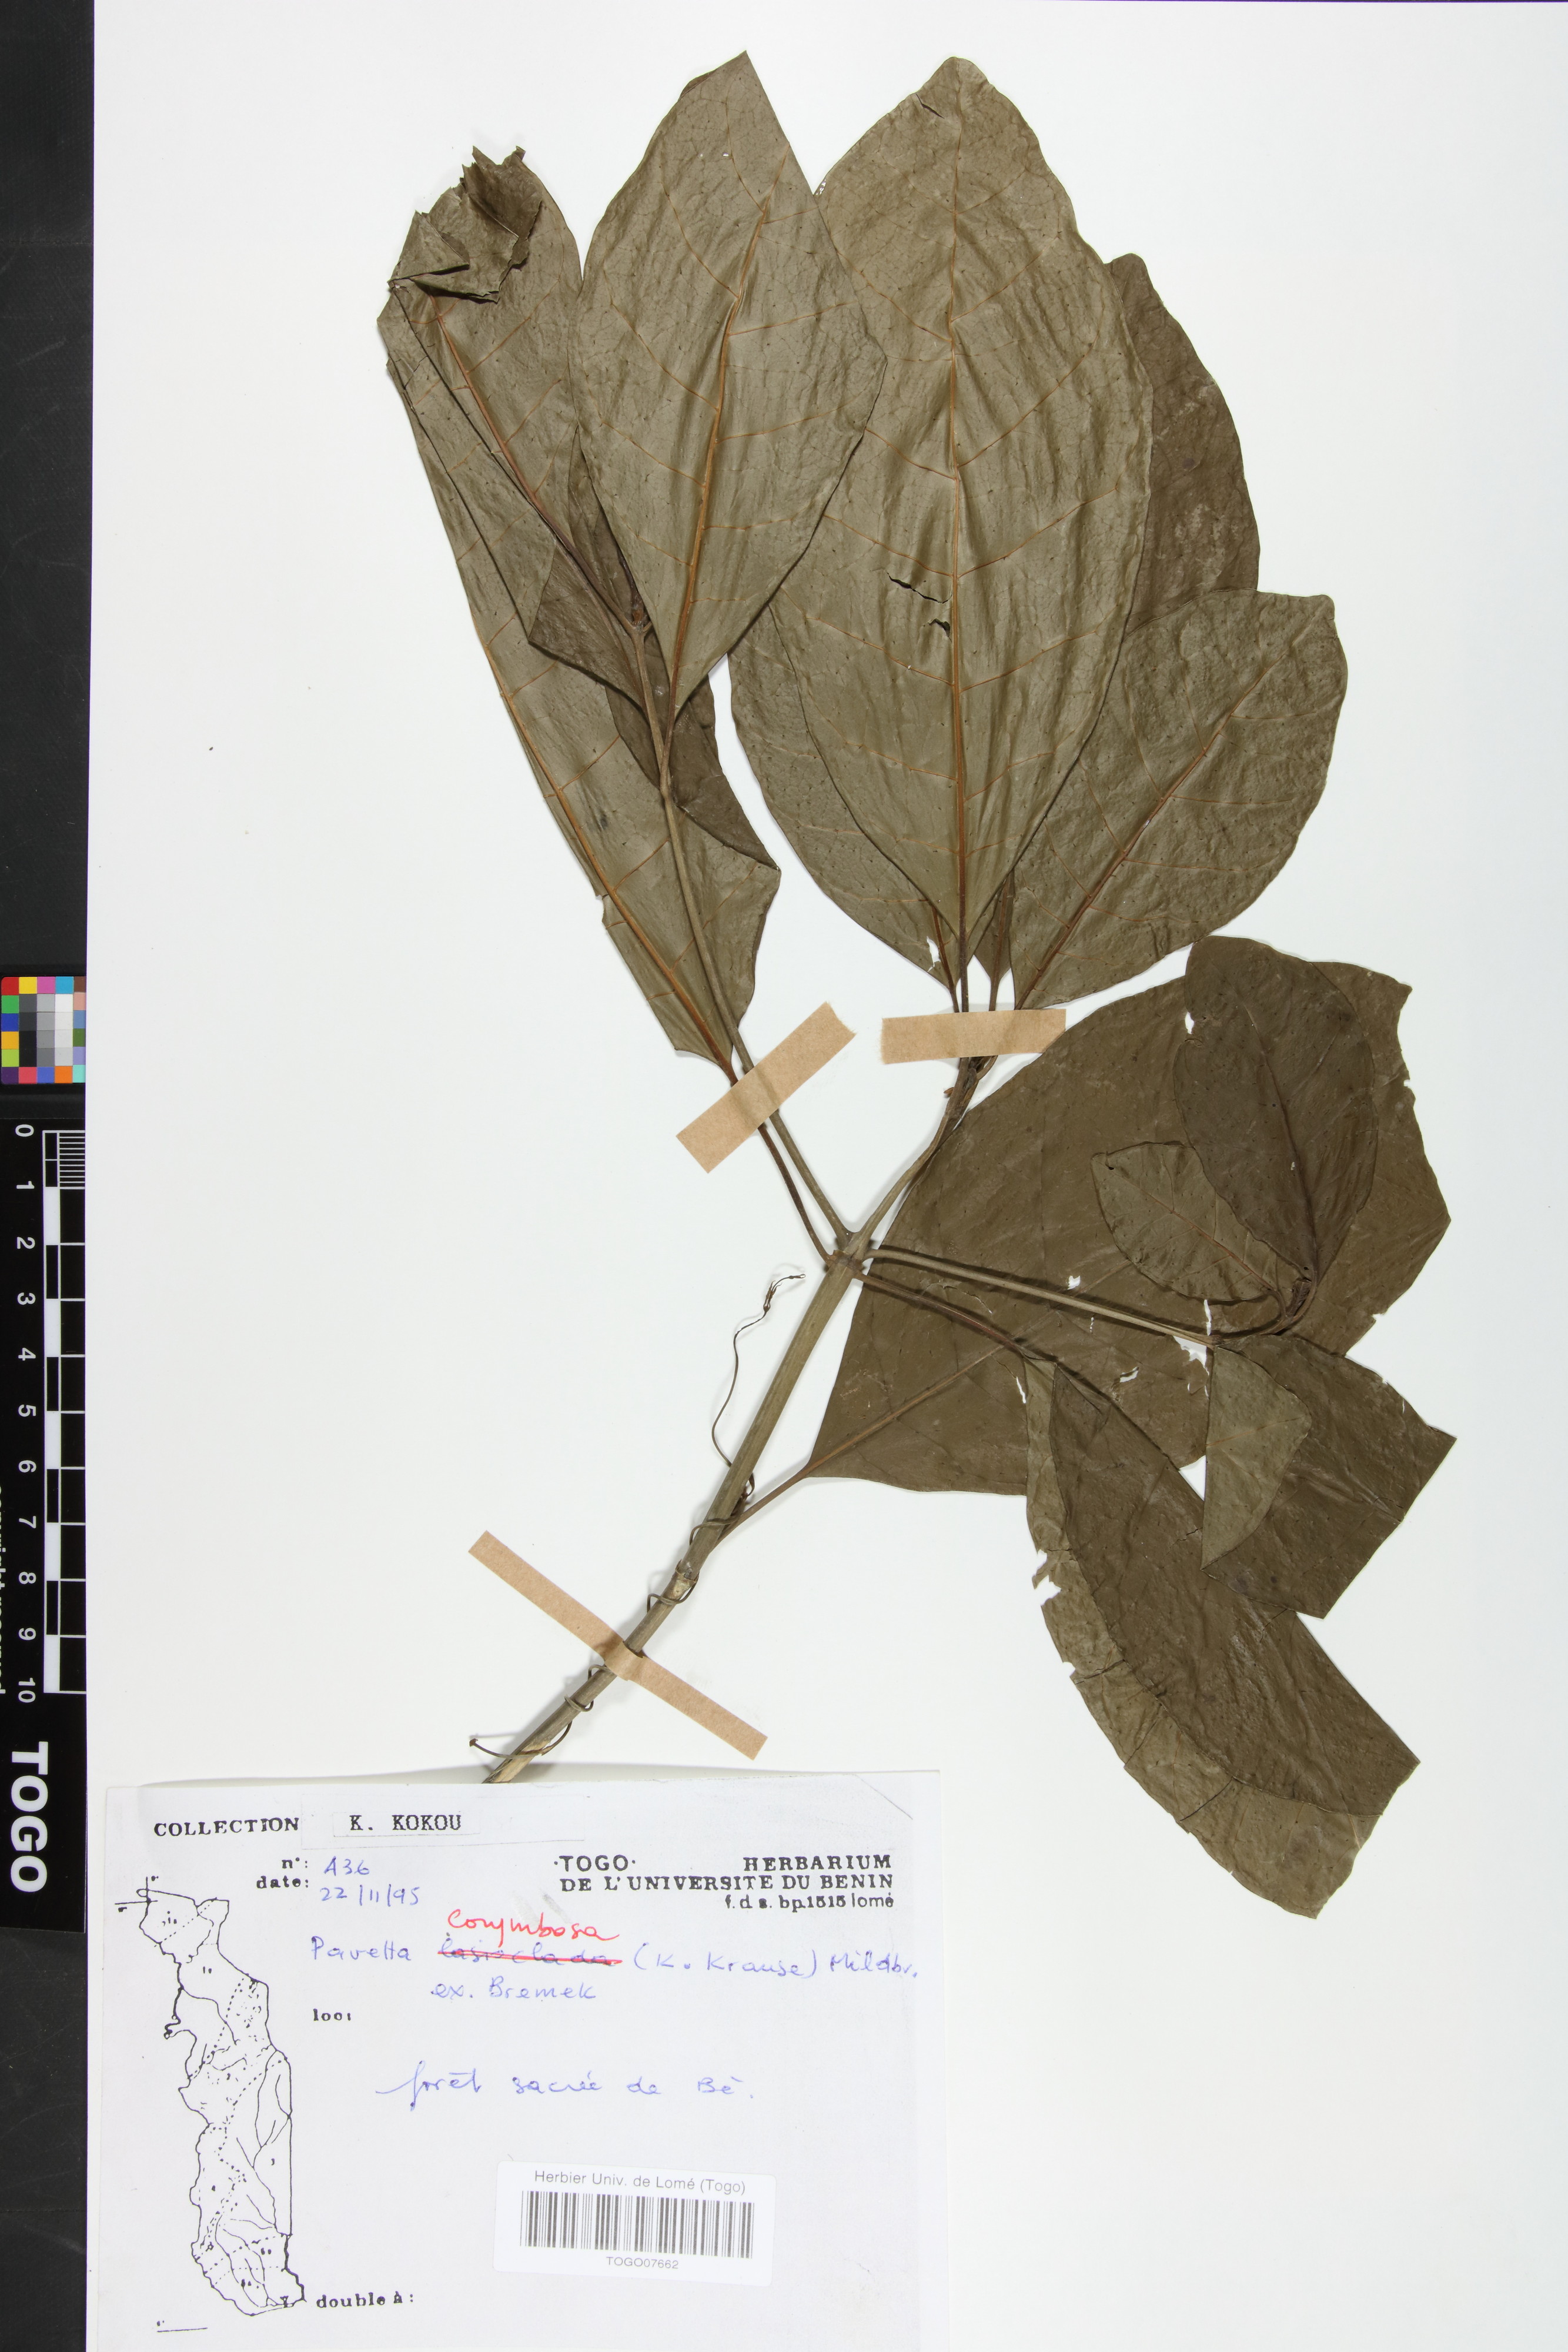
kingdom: Plantae
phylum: Tracheophyta
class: Magnoliopsida
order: Gentianales
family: Rubiaceae
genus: Pavetta
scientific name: Pavetta corymbosa
